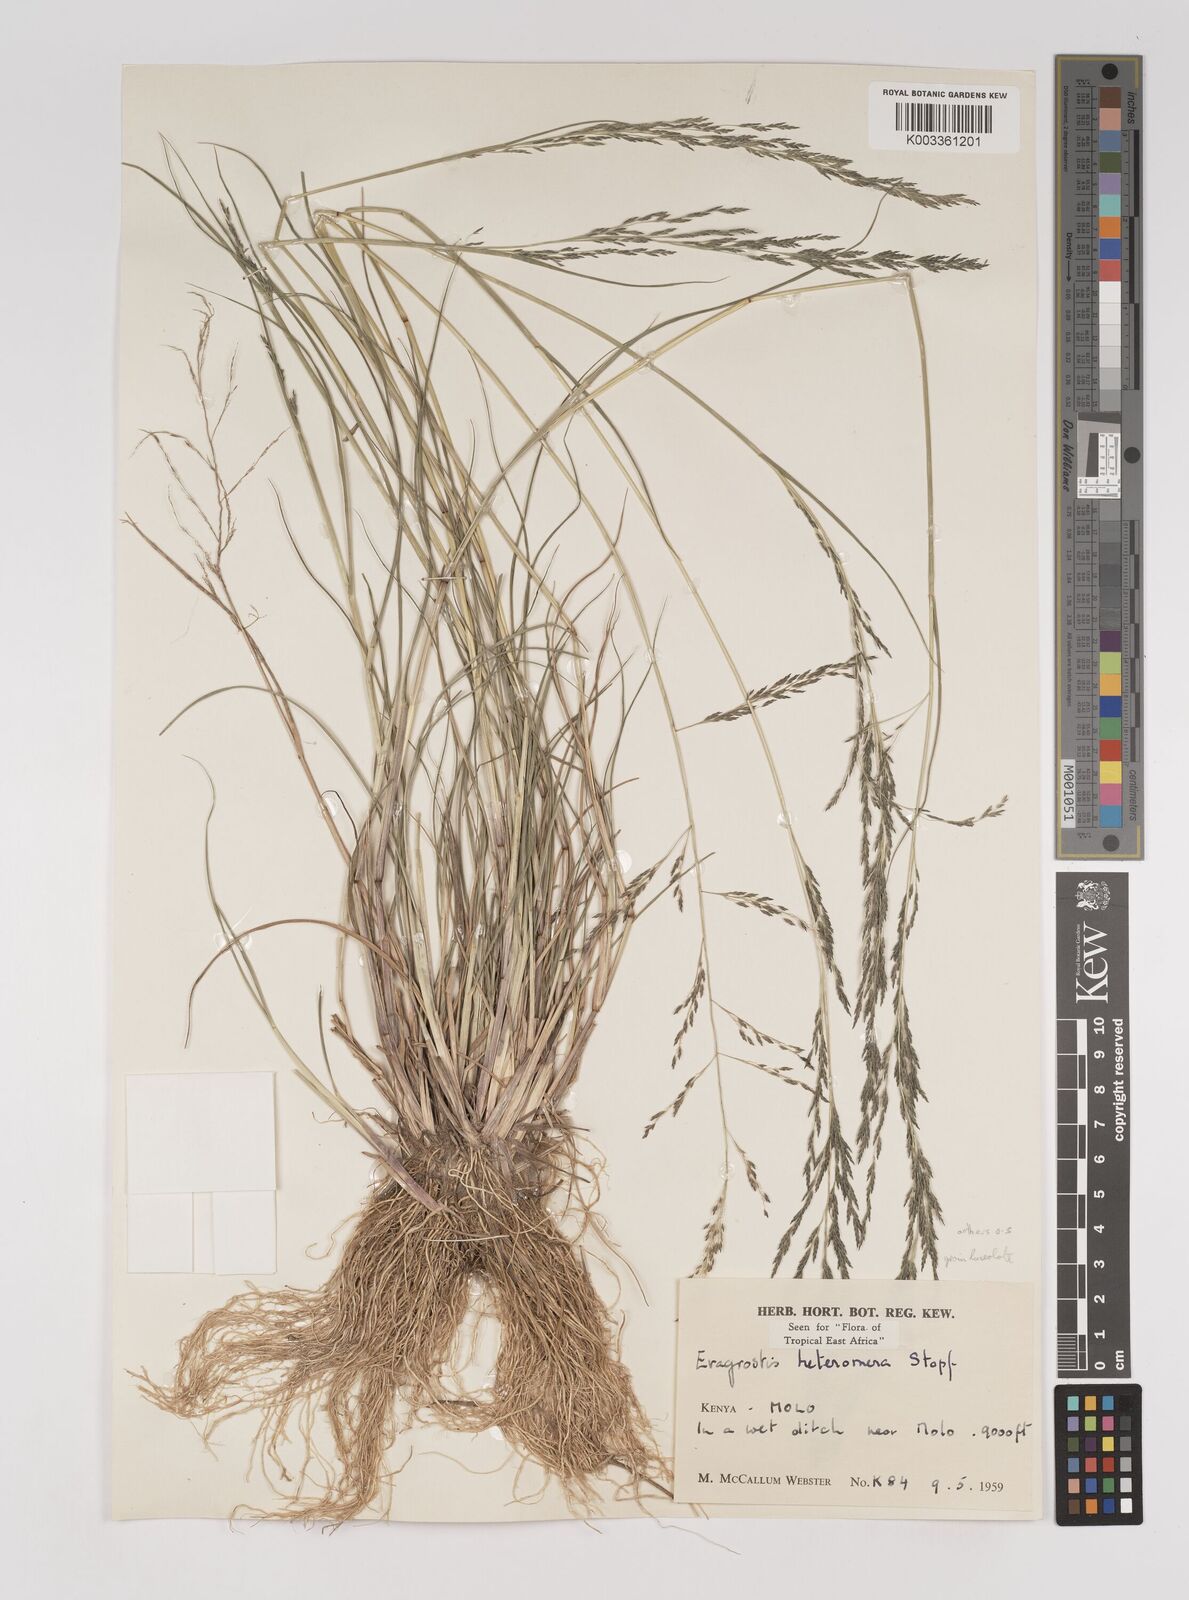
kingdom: Plantae
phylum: Tracheophyta
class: Liliopsida
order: Poales
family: Poaceae
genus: Eragrostis
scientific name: Eragrostis heteromera
